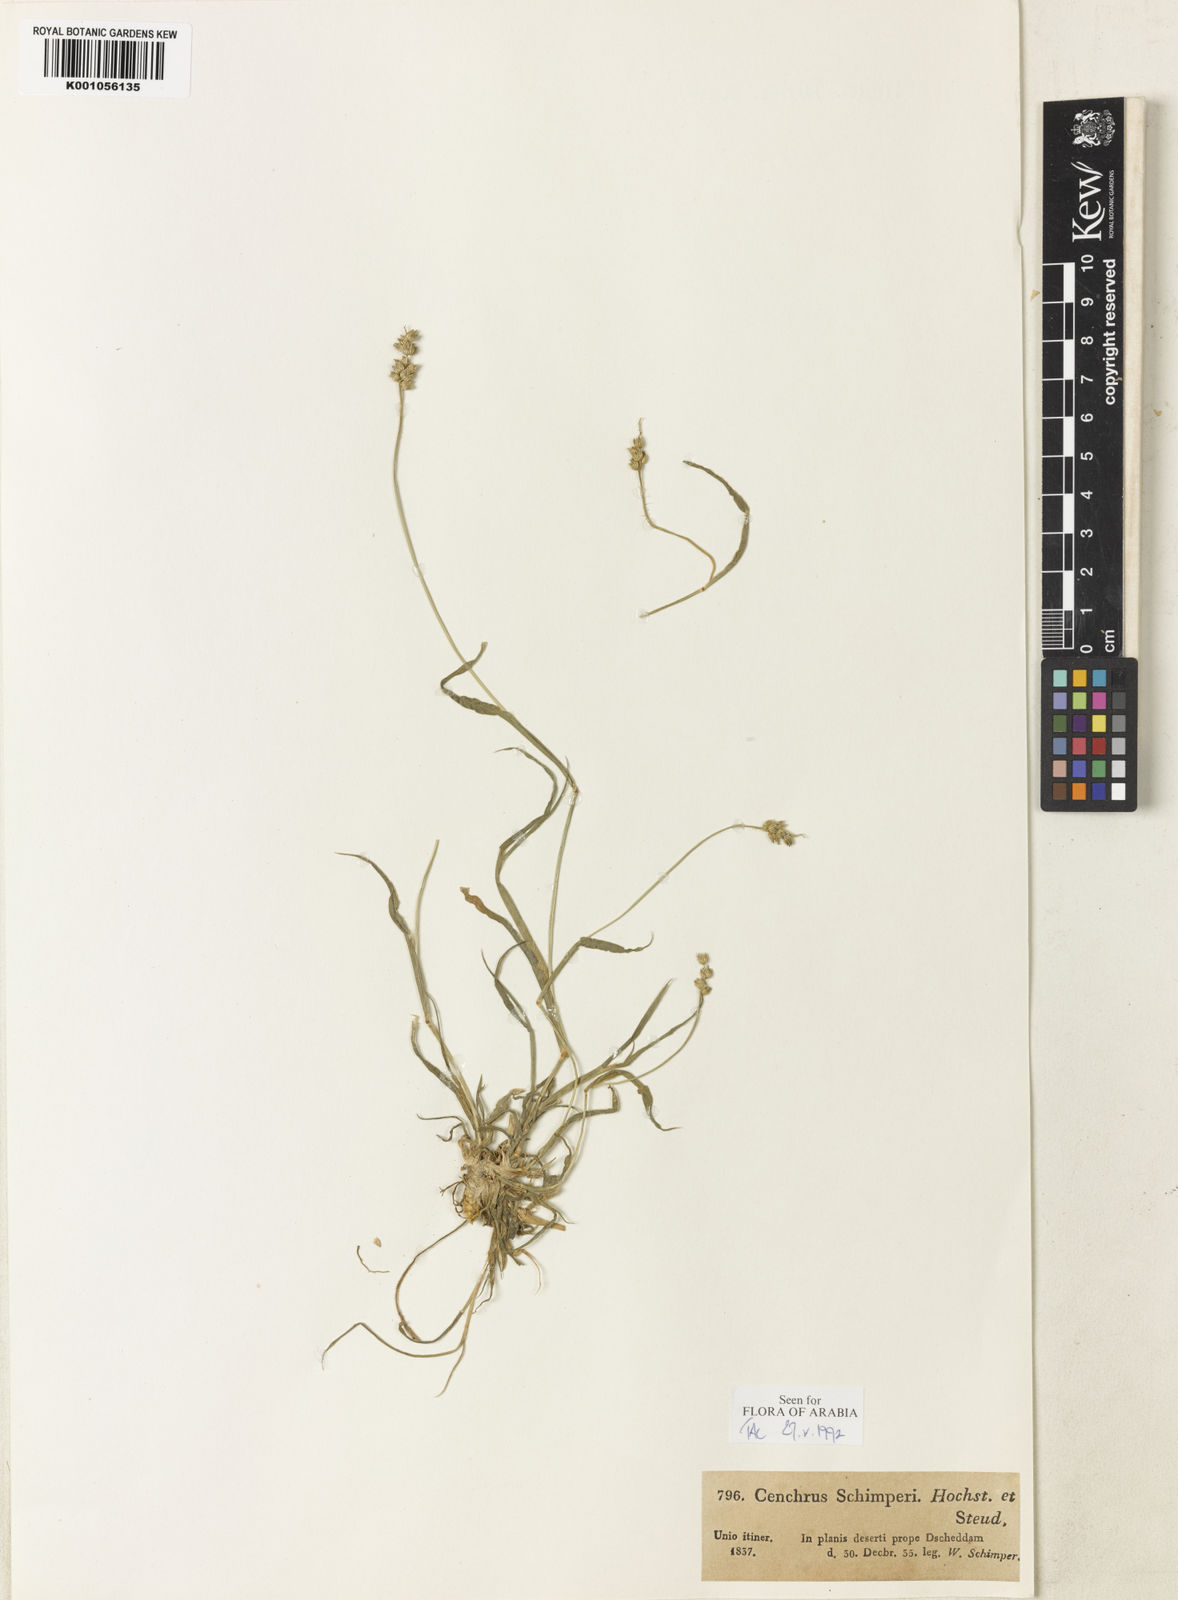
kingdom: Plantae
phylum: Tracheophyta
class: Liliopsida
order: Poales
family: Poaceae
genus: Cenchrus
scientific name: Cenchrus
